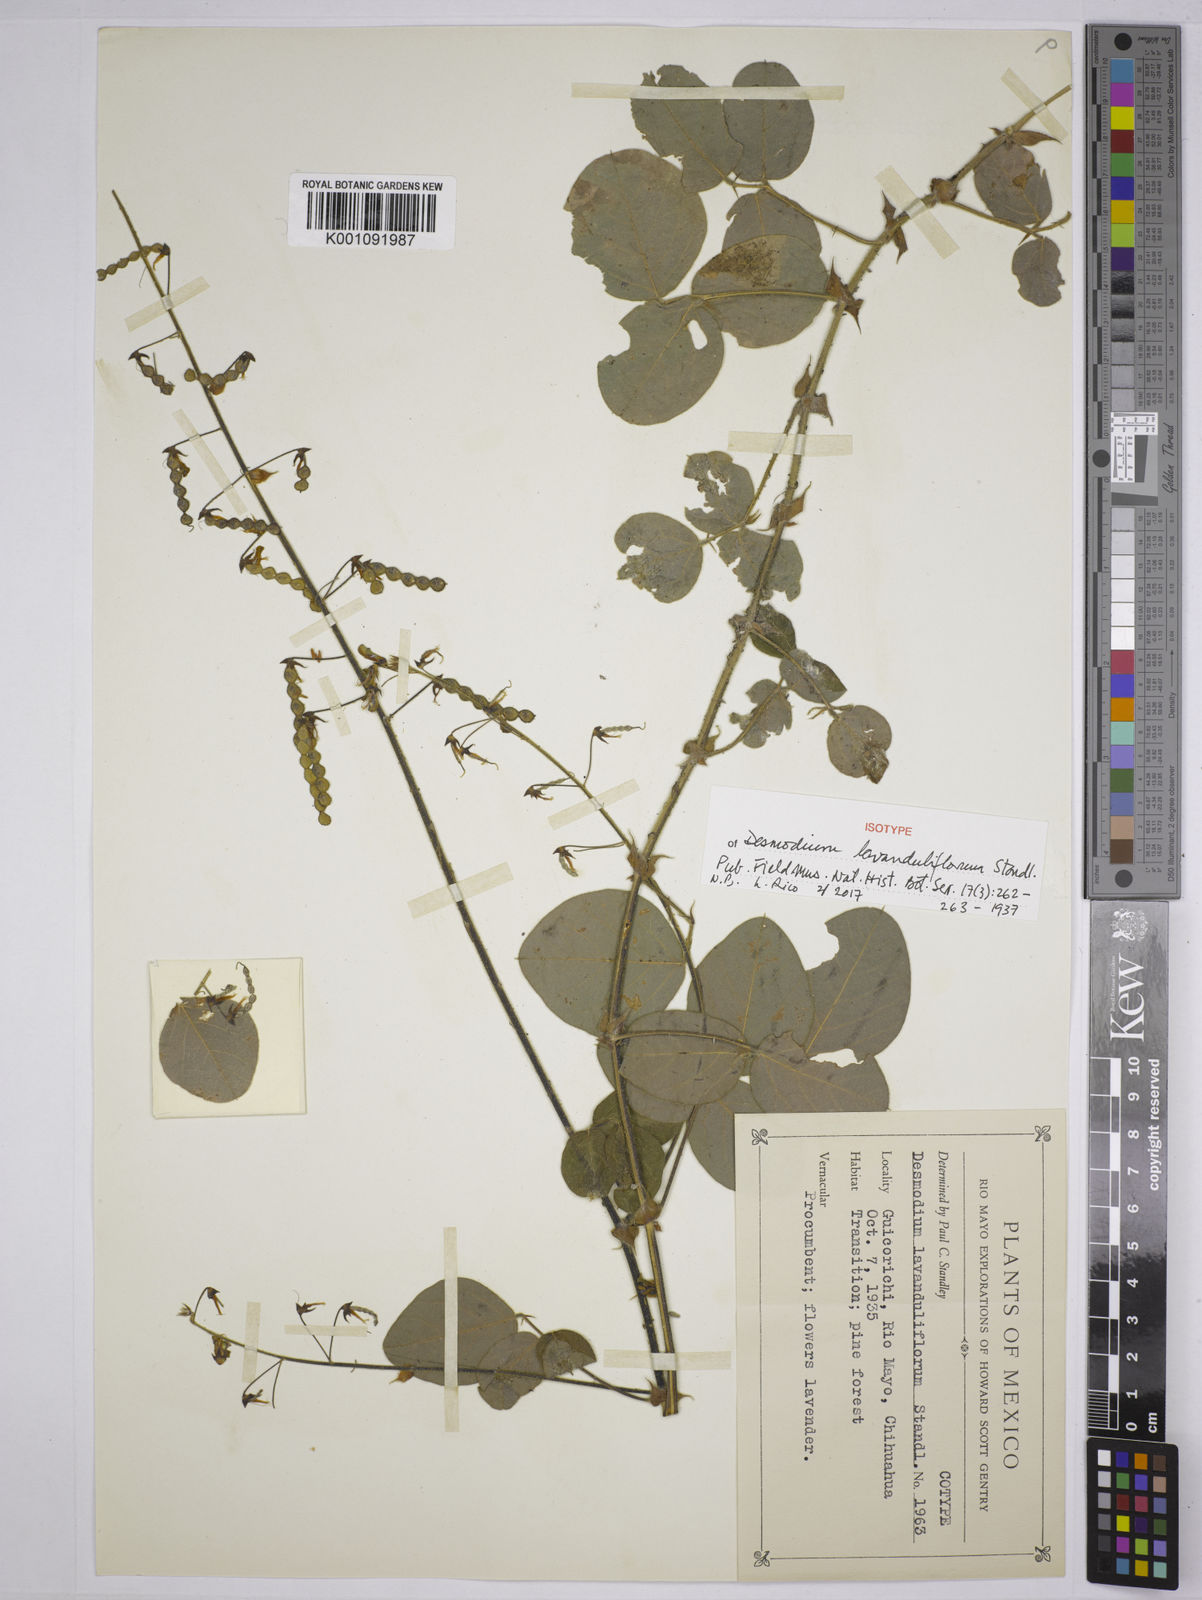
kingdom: Plantae
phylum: Tracheophyta
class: Magnoliopsida
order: Fabales
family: Fabaceae
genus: Desmodium
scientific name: Desmodium lavanduliflorum
